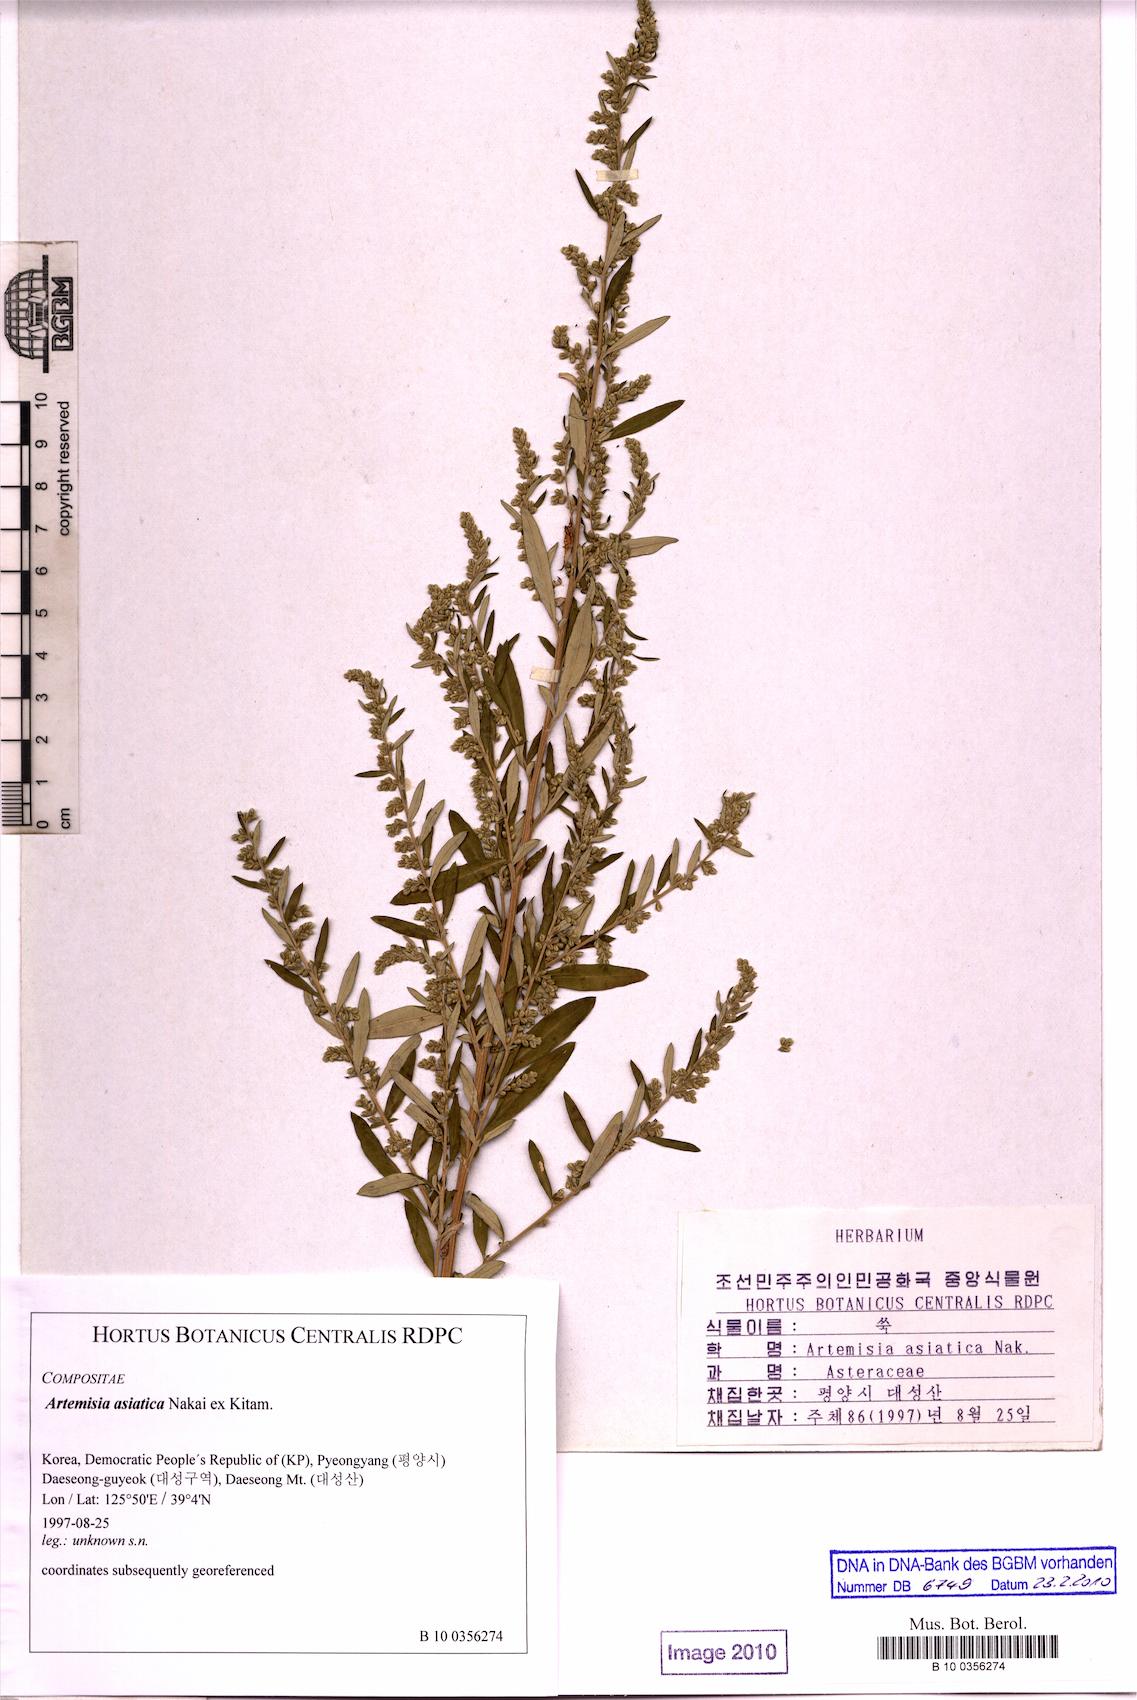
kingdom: Plantae
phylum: Tracheophyta
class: Magnoliopsida
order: Asterales
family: Asteraceae
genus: Artemisia
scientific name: Artemisia dubia
